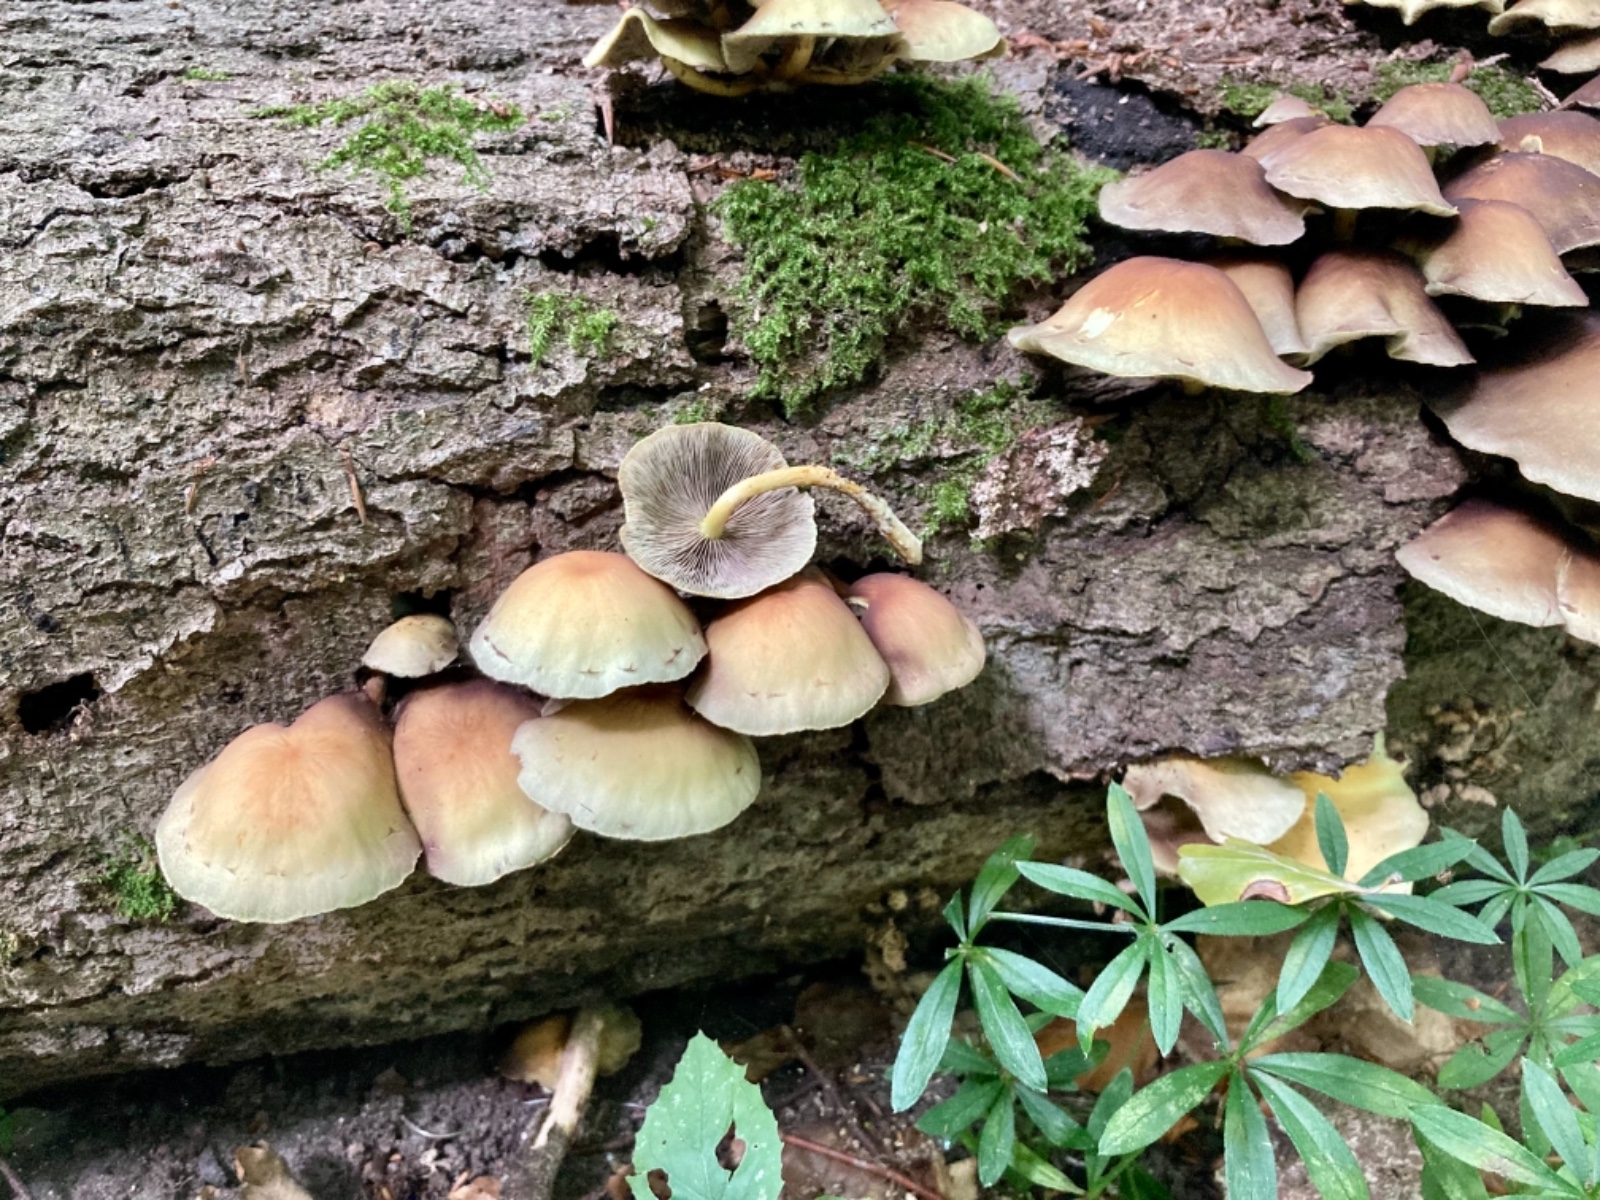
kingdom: Fungi
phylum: Basidiomycota
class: Agaricomycetes
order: Agaricales
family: Strophariaceae
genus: Hypholoma
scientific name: Hypholoma fasciculare
